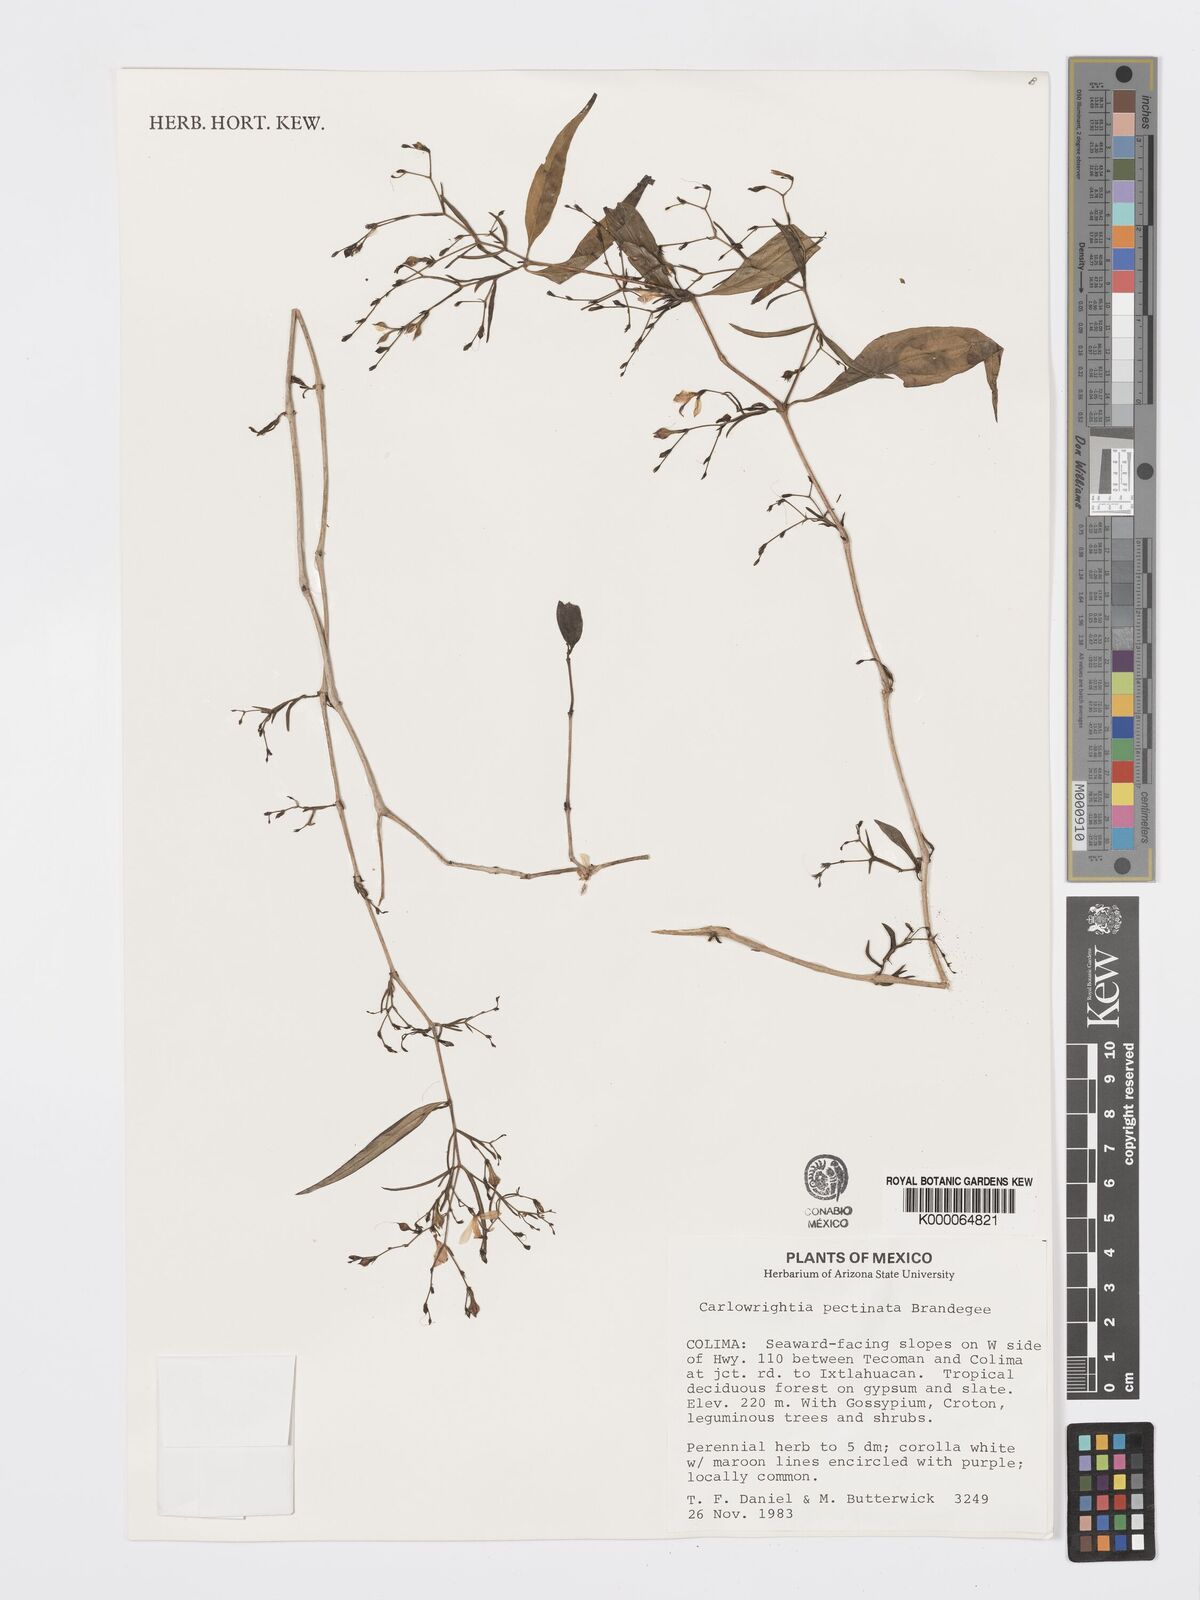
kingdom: Plantae
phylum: Tracheophyta
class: Magnoliopsida
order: Lamiales
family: Acanthaceae
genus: Carlowrightia
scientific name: Carlowrightia pectinata
